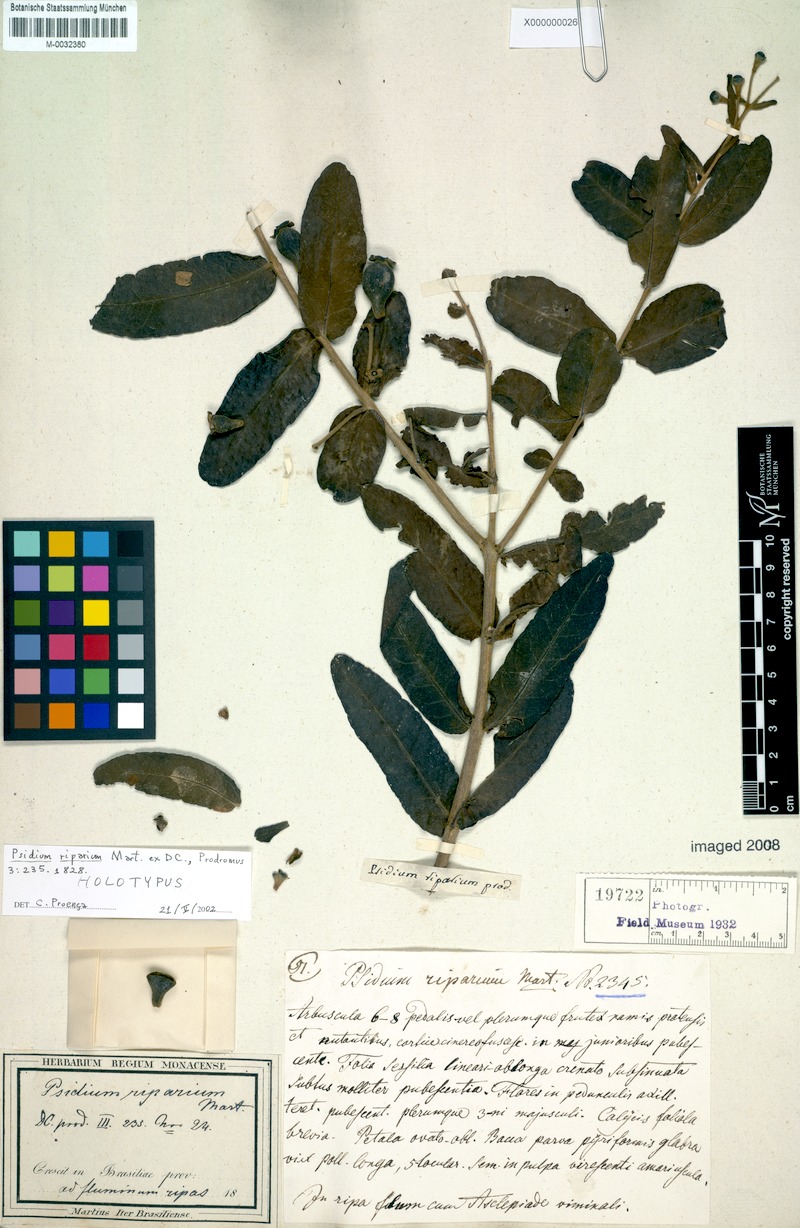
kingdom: Plantae
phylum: Tracheophyta
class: Magnoliopsida
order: Myrtales
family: Myrtaceae
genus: Psidium
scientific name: Psidium riparium
